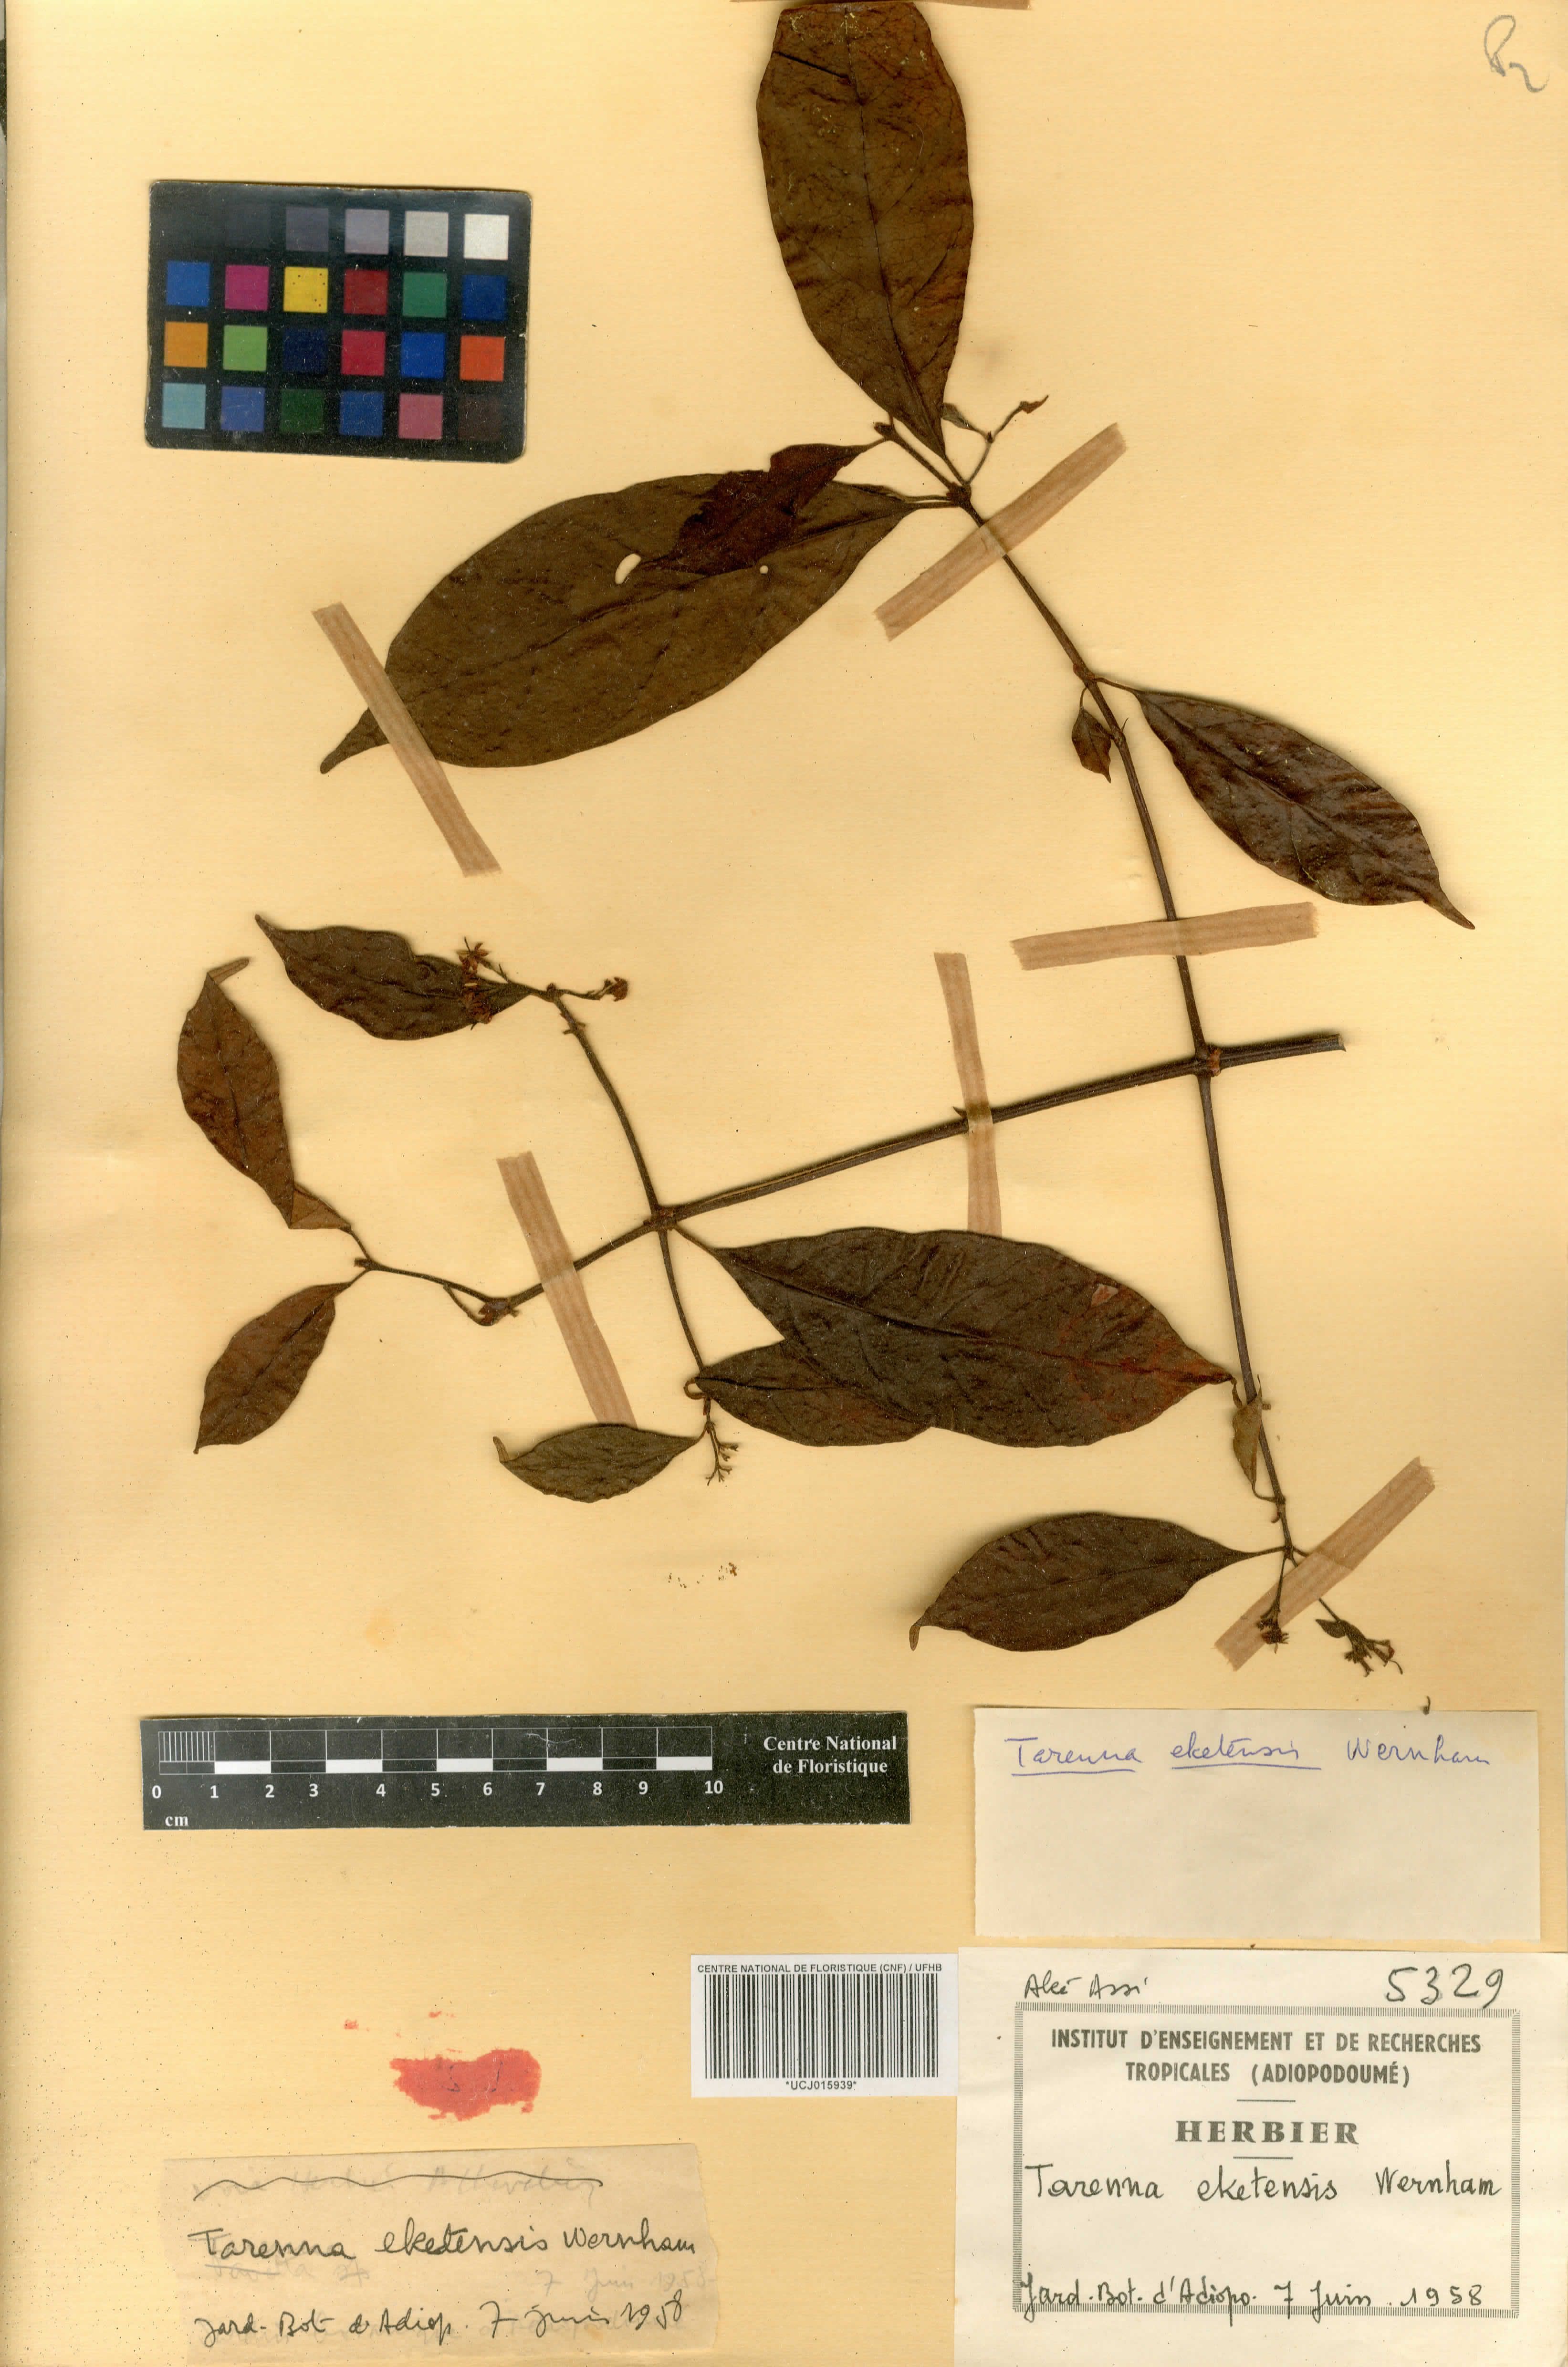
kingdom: Plantae
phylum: Tracheophyta
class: Magnoliopsida
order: Gentianales
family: Rubiaceae
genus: Tarenna
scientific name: Tarenna eketensis
